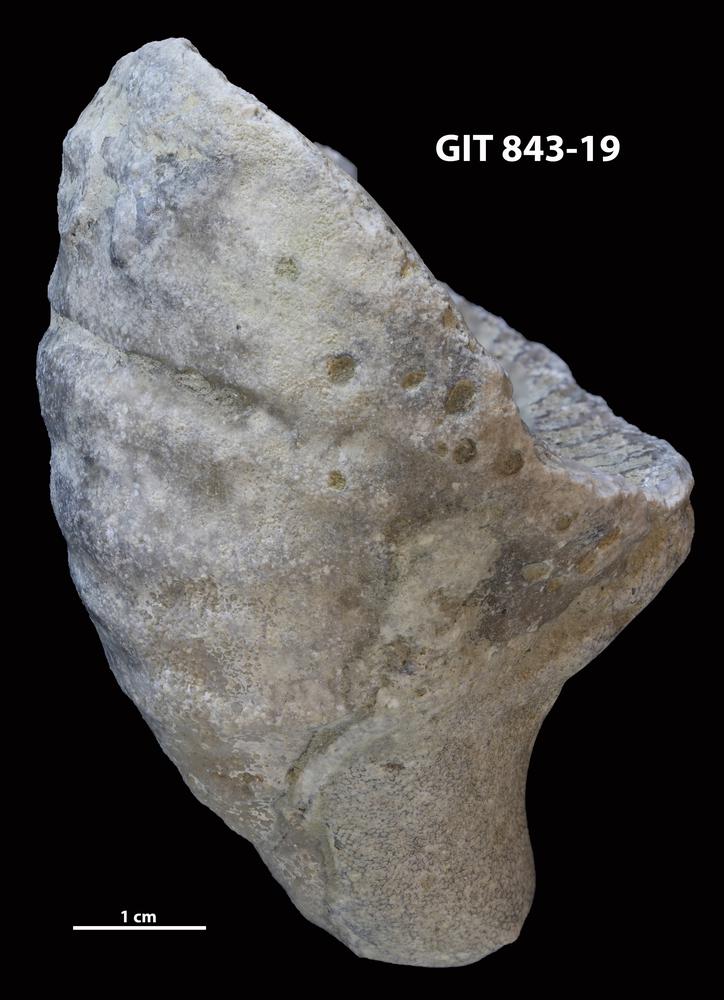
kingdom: Animalia
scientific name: Animalia
